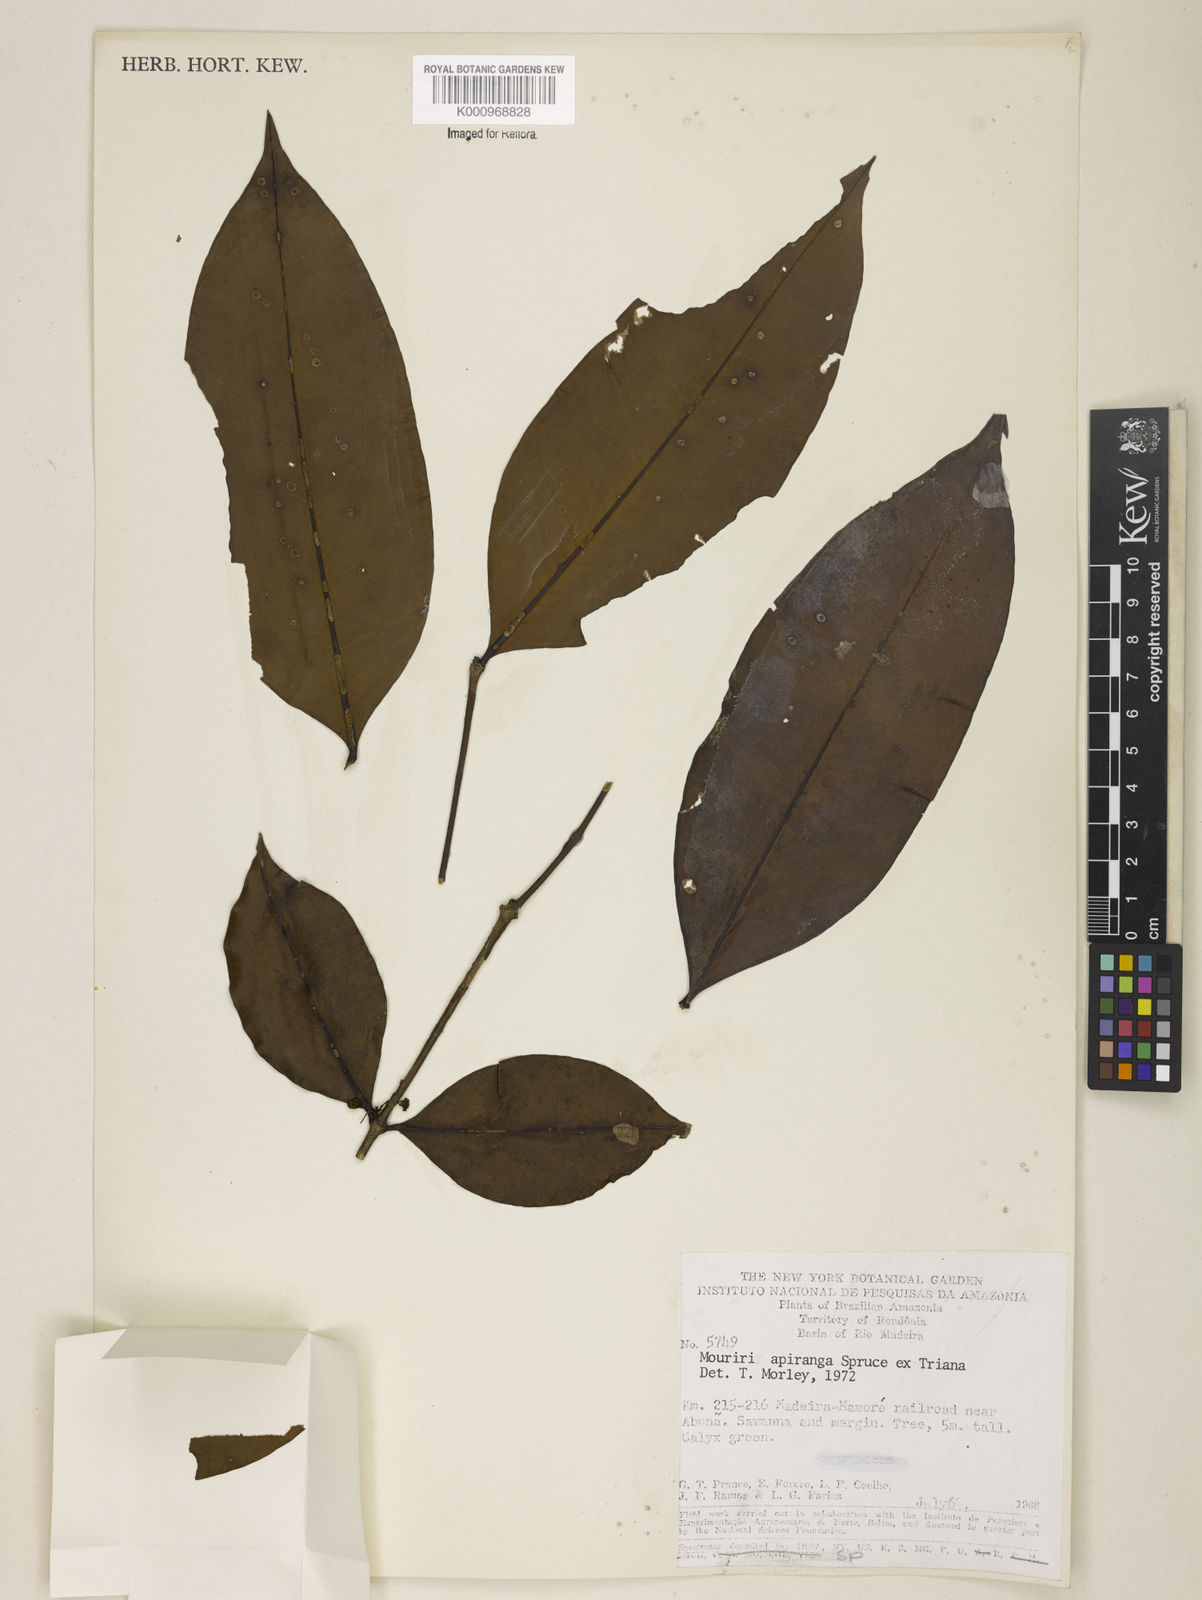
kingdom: Plantae
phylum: Tracheophyta
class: Magnoliopsida
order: Myrtales
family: Melastomataceae
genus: Mouriri
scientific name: Mouriri apiranga
